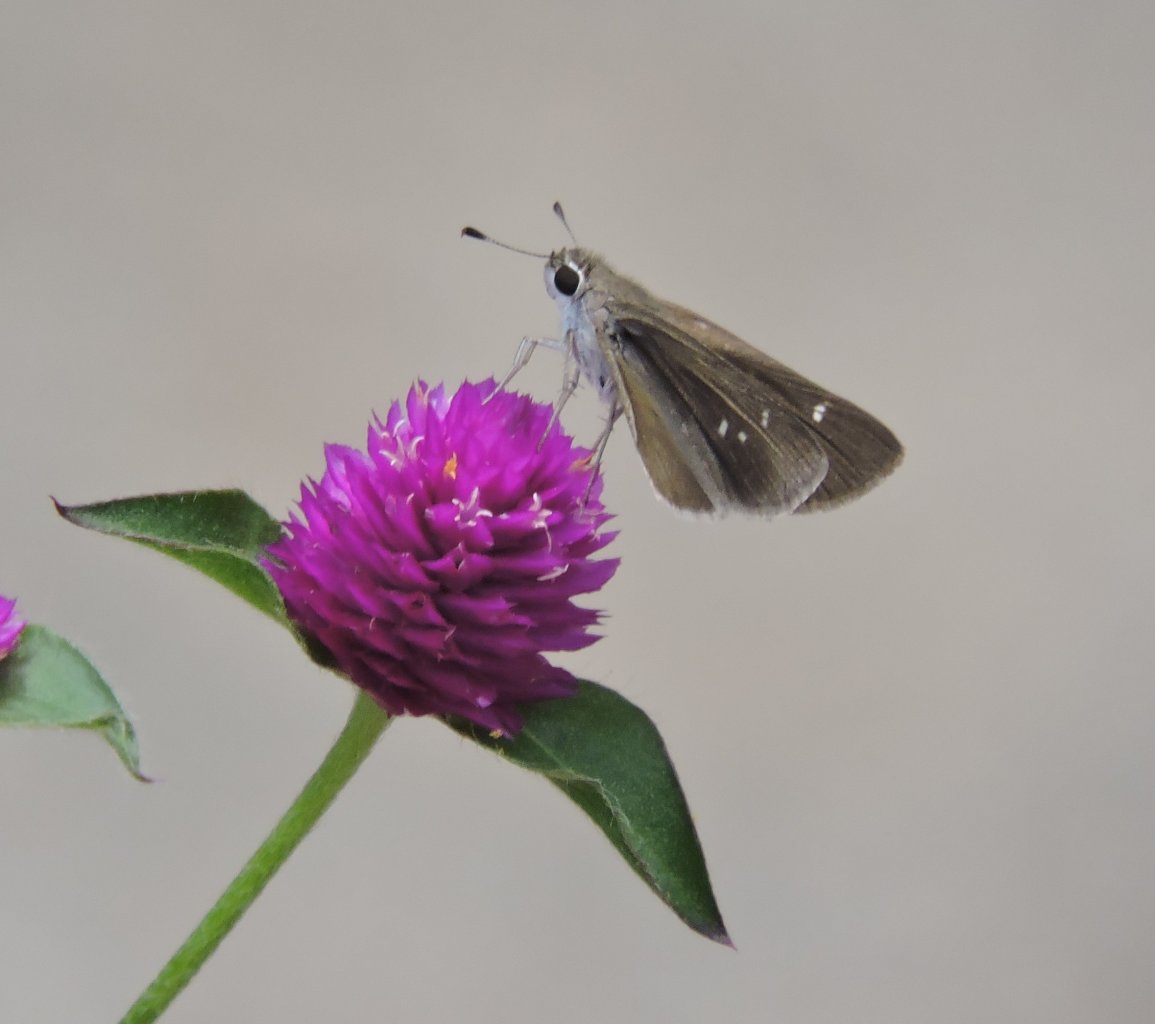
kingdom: Animalia
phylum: Arthropoda
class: Insecta
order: Lepidoptera
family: Hesperiidae
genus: Lerodea
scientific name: Lerodea eufala
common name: Eufala Skipper
